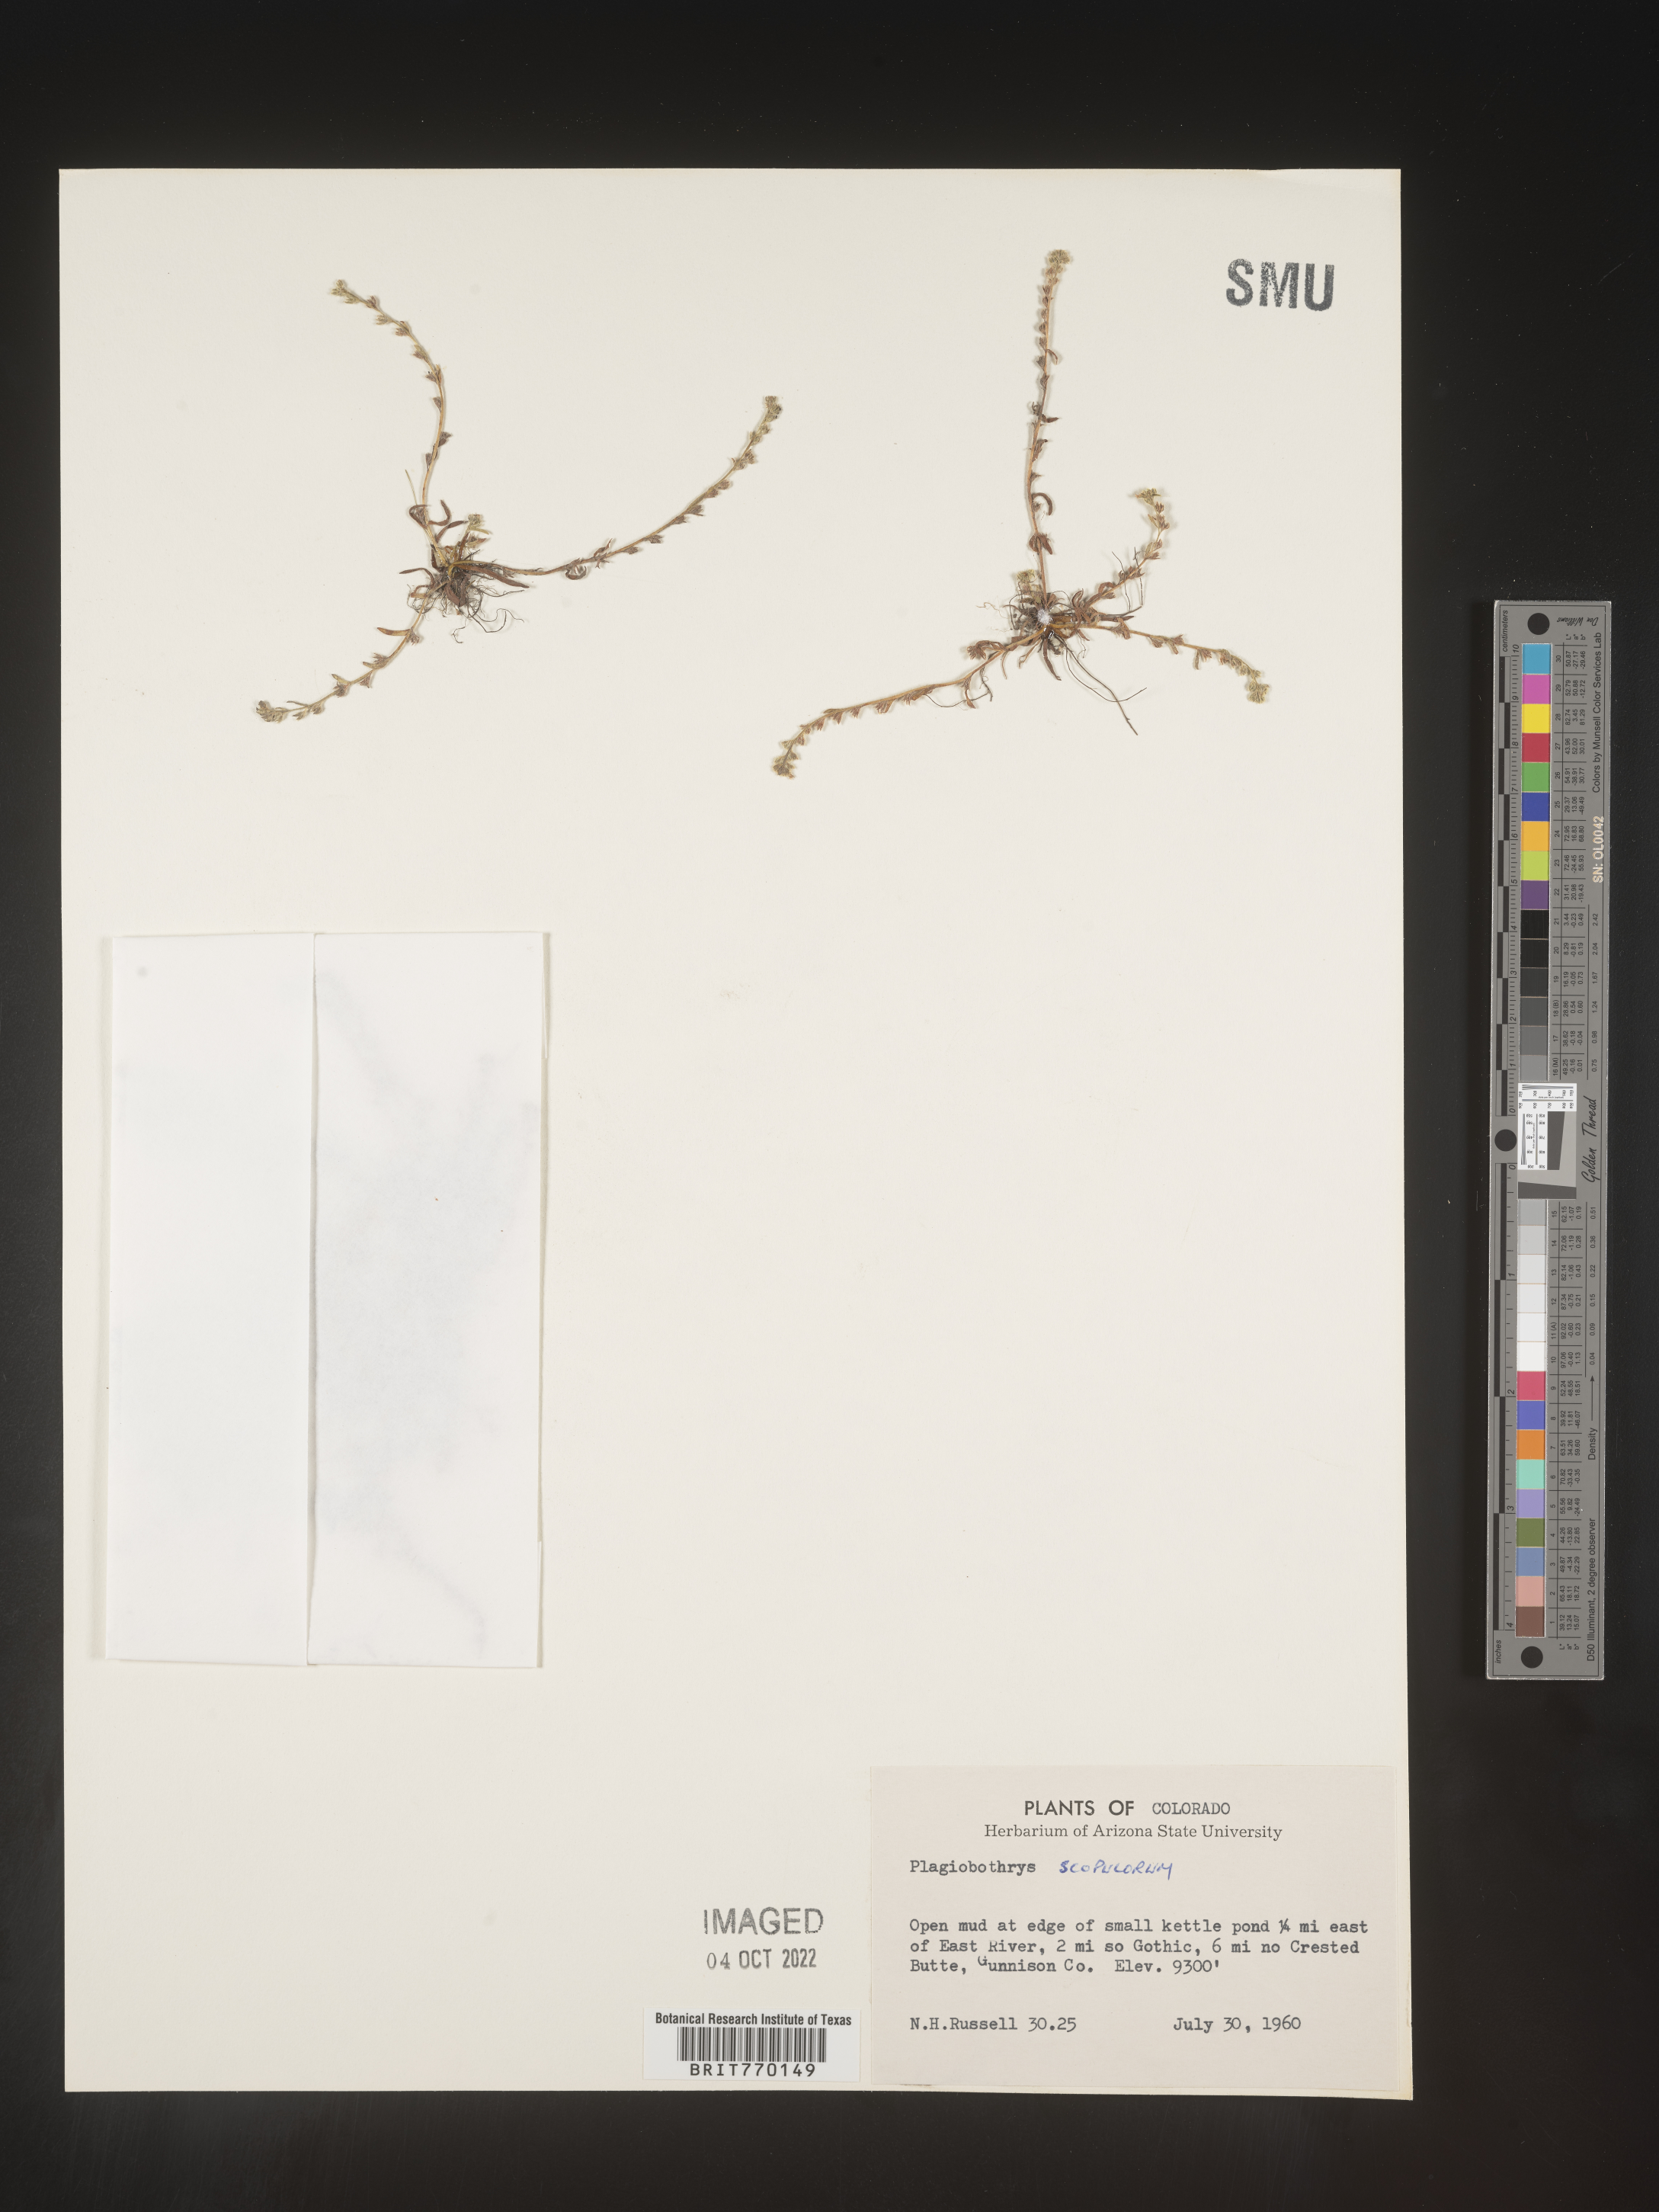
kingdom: Plantae
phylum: Tracheophyta
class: Magnoliopsida
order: Boraginales
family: Boraginaceae
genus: Plagiobothrys
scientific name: Plagiobothrys
